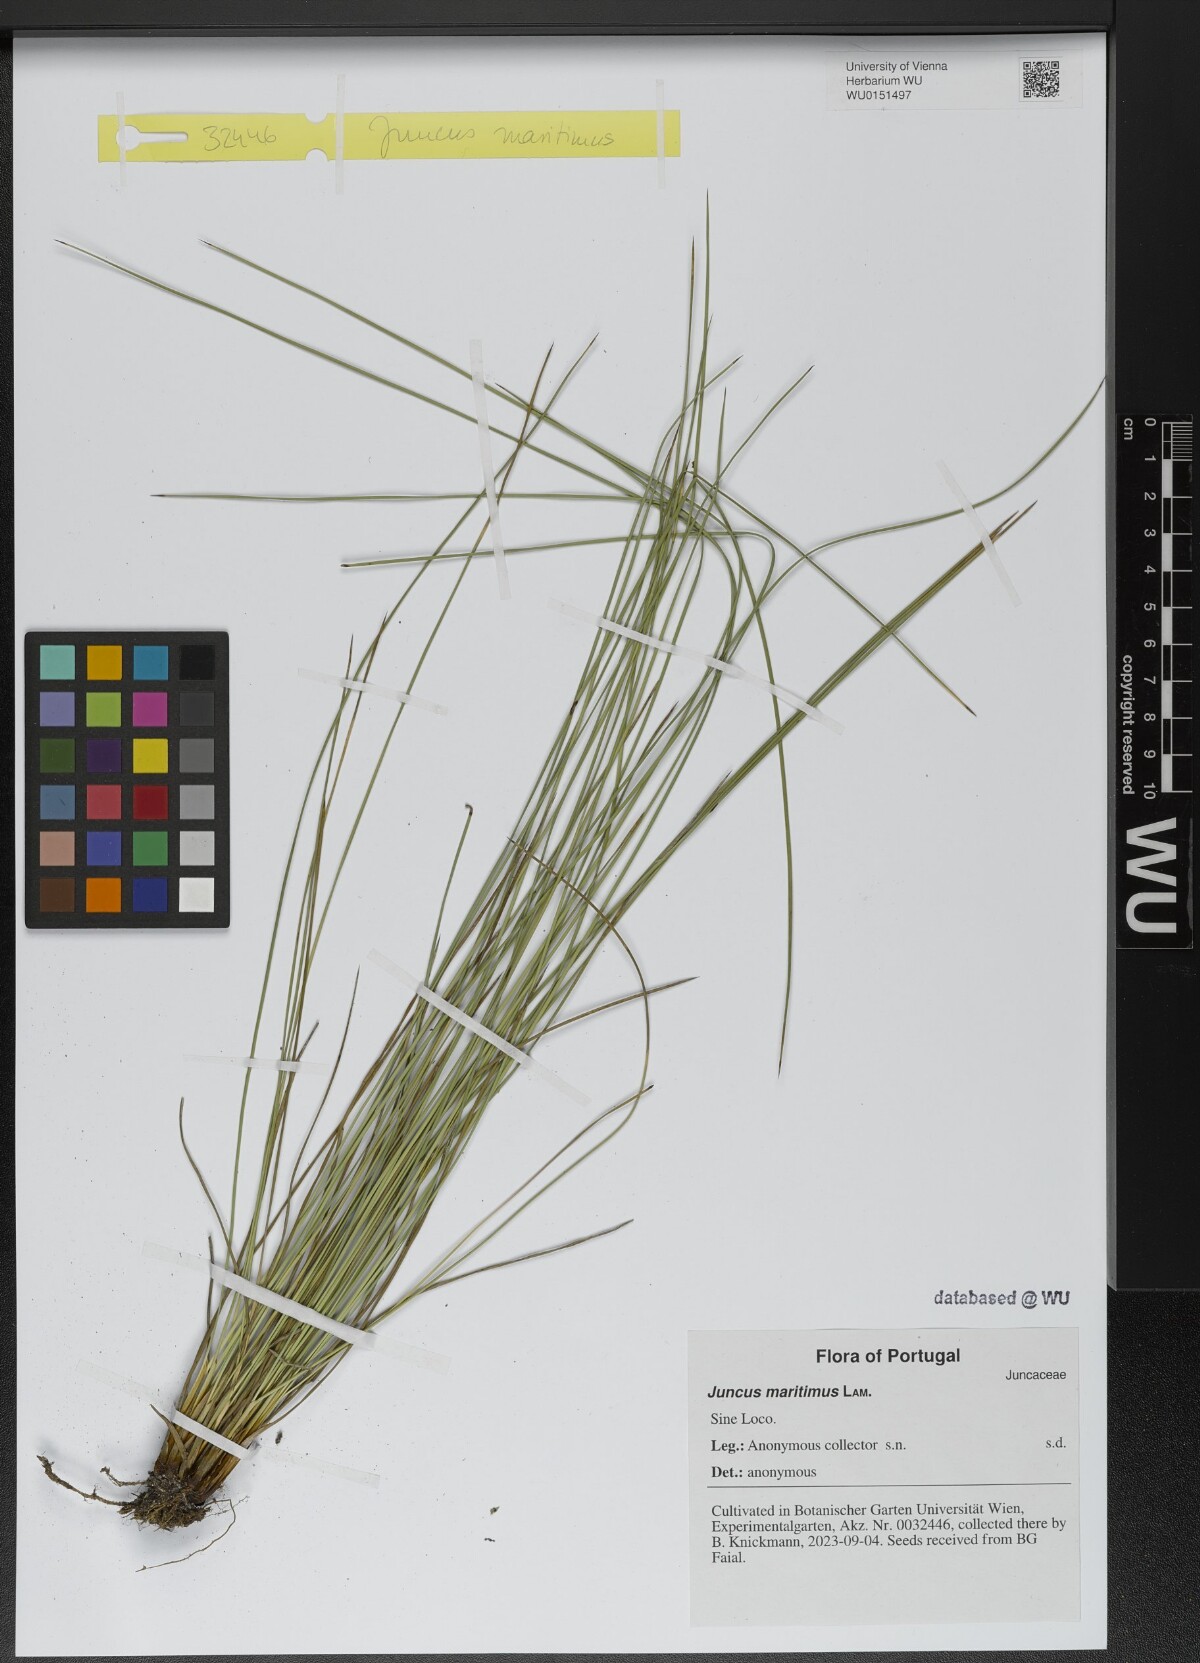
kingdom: Plantae
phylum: Tracheophyta
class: Liliopsida
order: Poales
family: Juncaceae
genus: Juncus
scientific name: Juncus maritimus
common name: Sea rush
